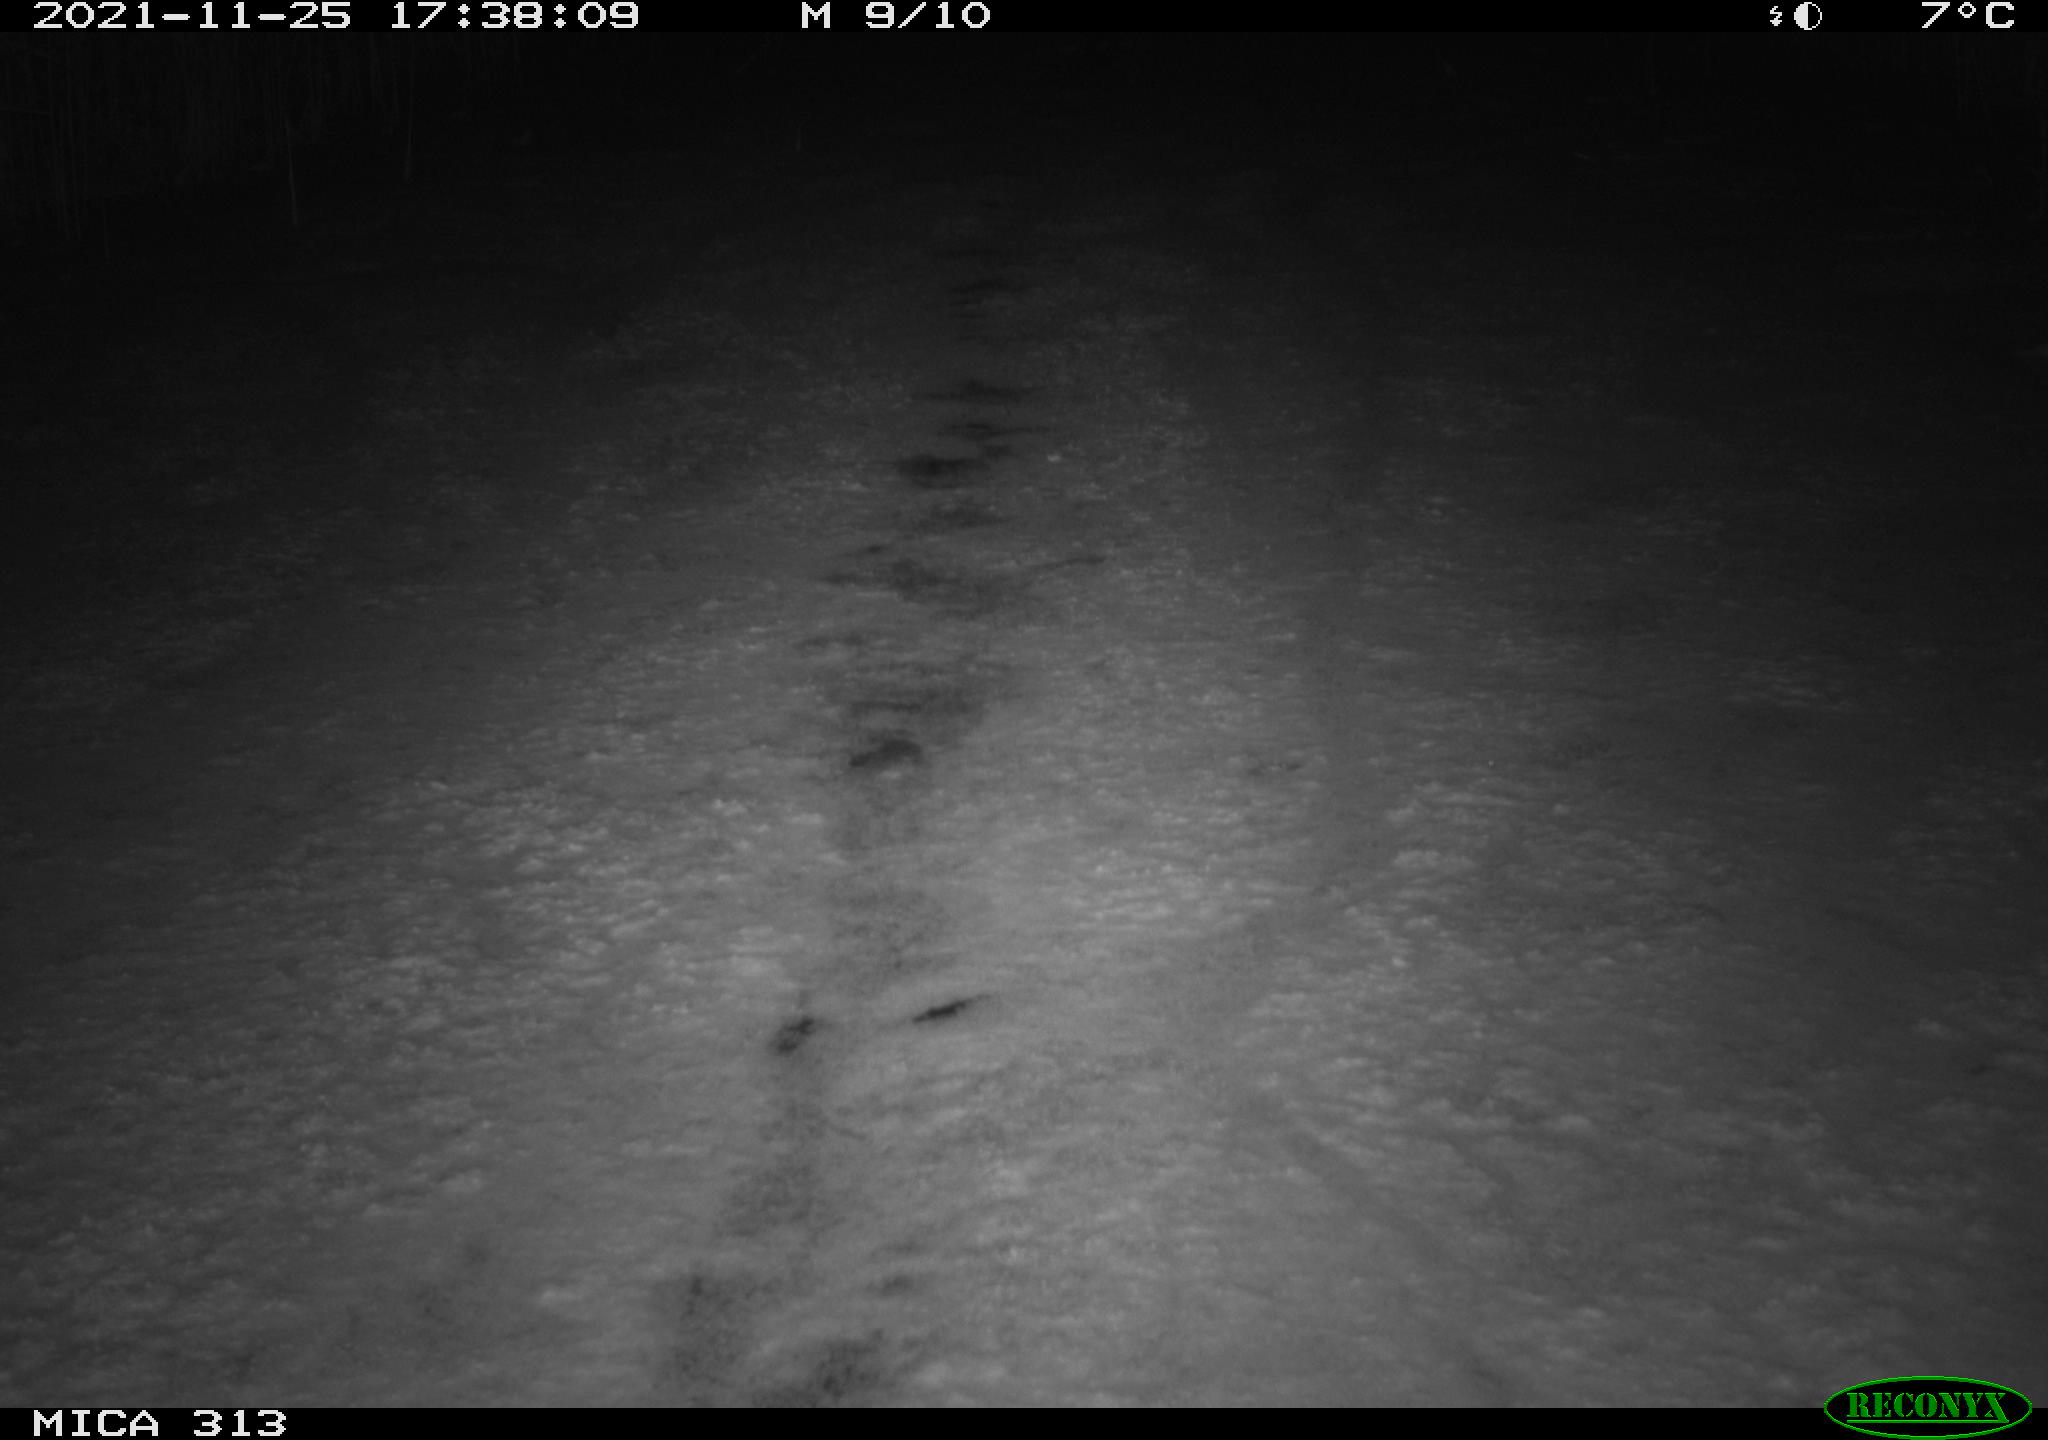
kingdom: Animalia
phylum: Chordata
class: Aves
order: Gruiformes
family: Rallidae
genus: Gallinula
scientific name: Gallinula chloropus
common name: Common moorhen
